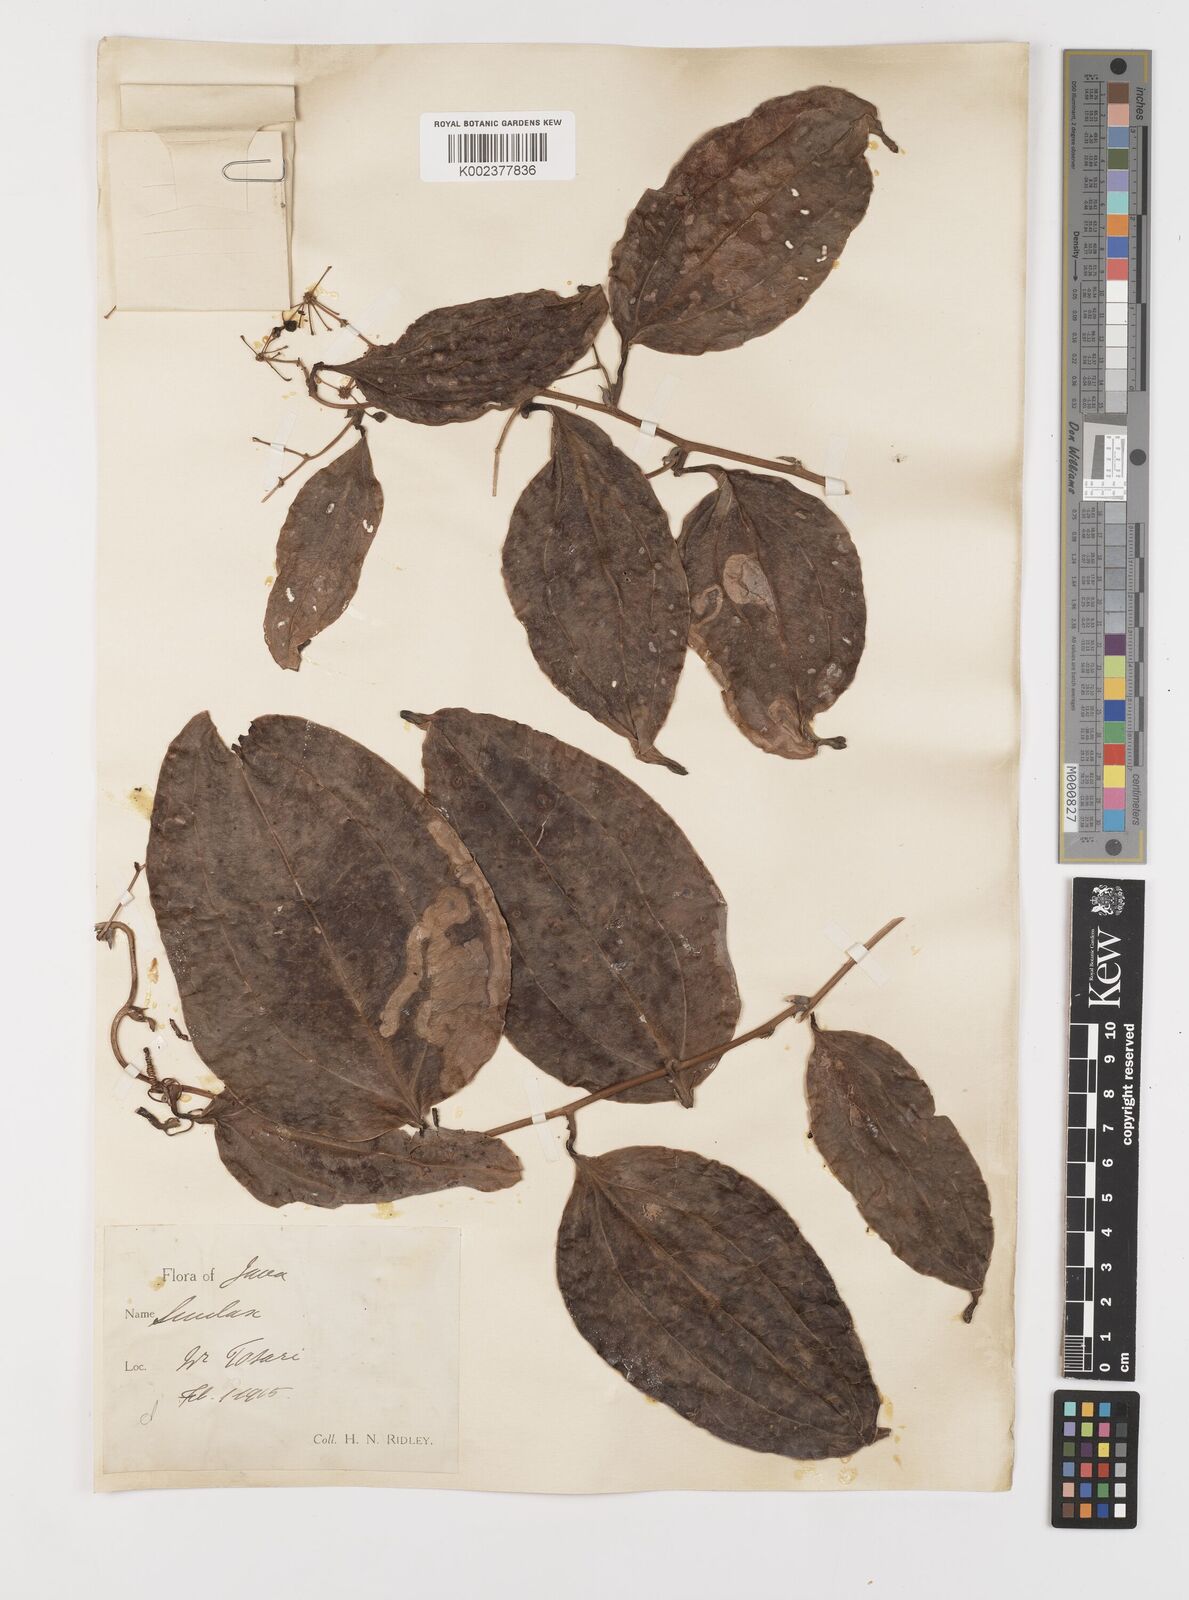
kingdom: Plantae
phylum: Tracheophyta
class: Liliopsida
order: Liliales
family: Smilacaceae
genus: Smilax
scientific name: Smilax
